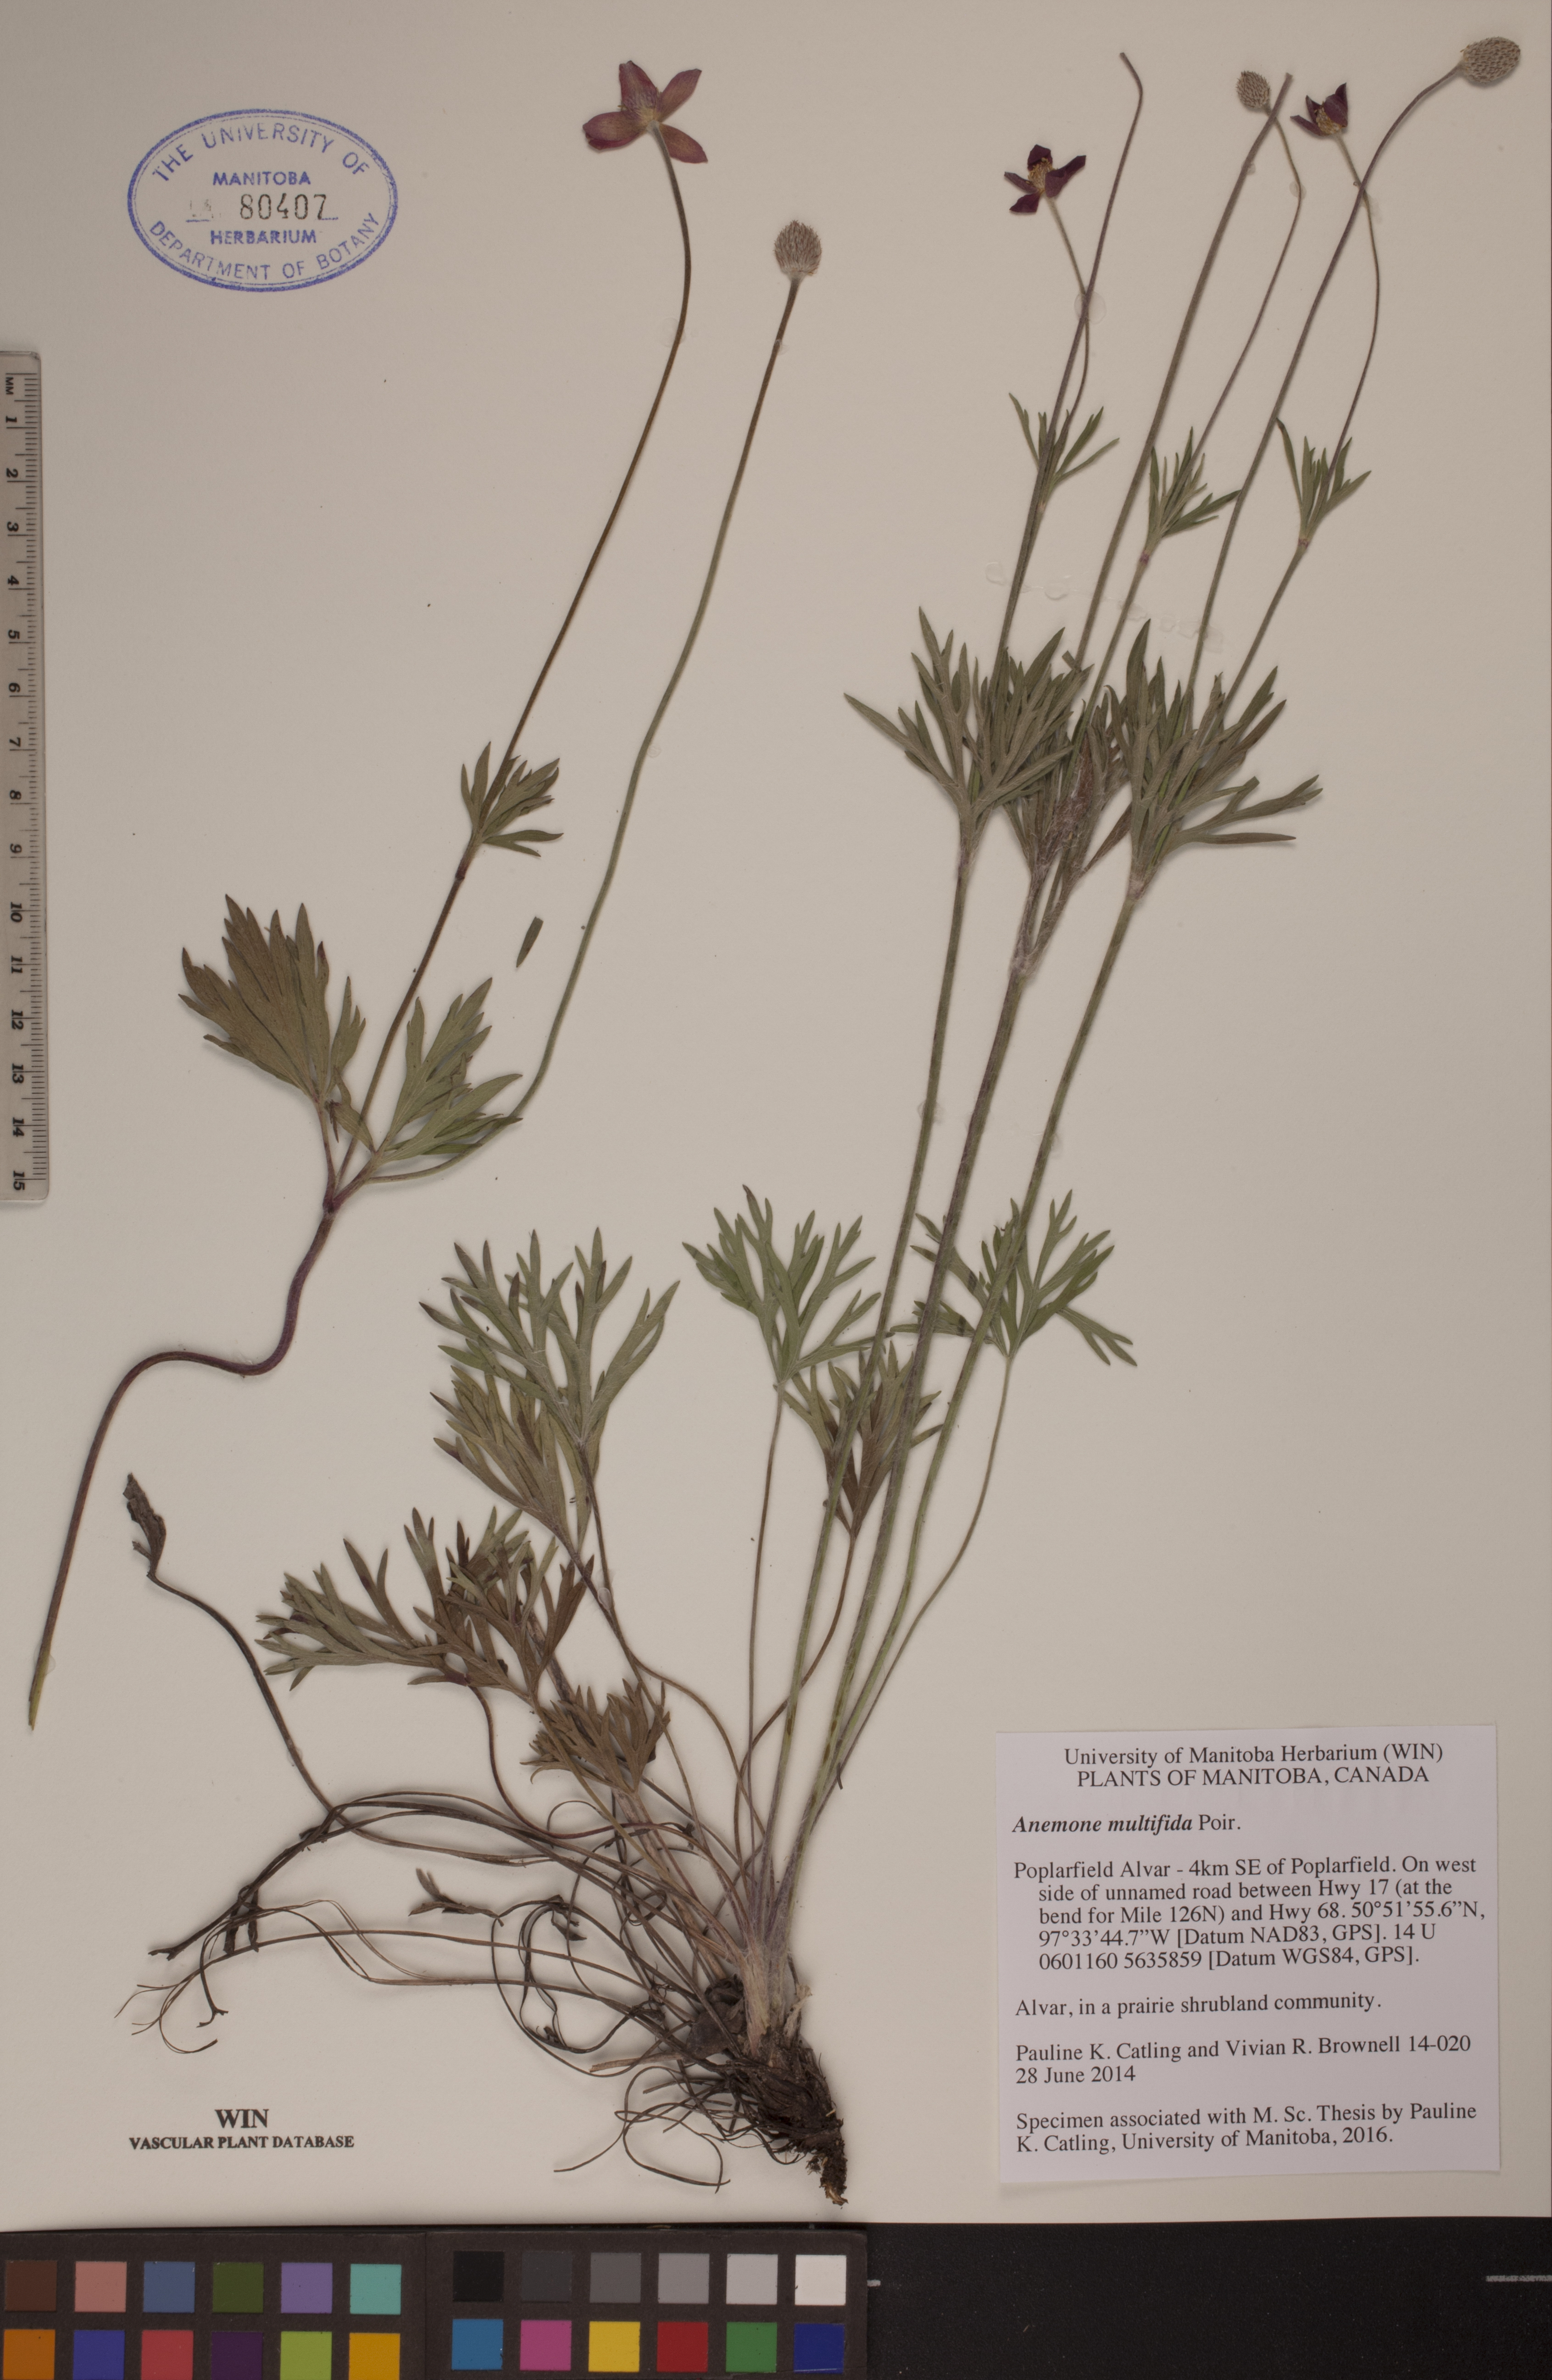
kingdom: Plantae
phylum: Tracheophyta
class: Magnoliopsida
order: Ranunculales
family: Ranunculaceae
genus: Anemone
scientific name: Anemone multifida
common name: Bird's-foot anemone
